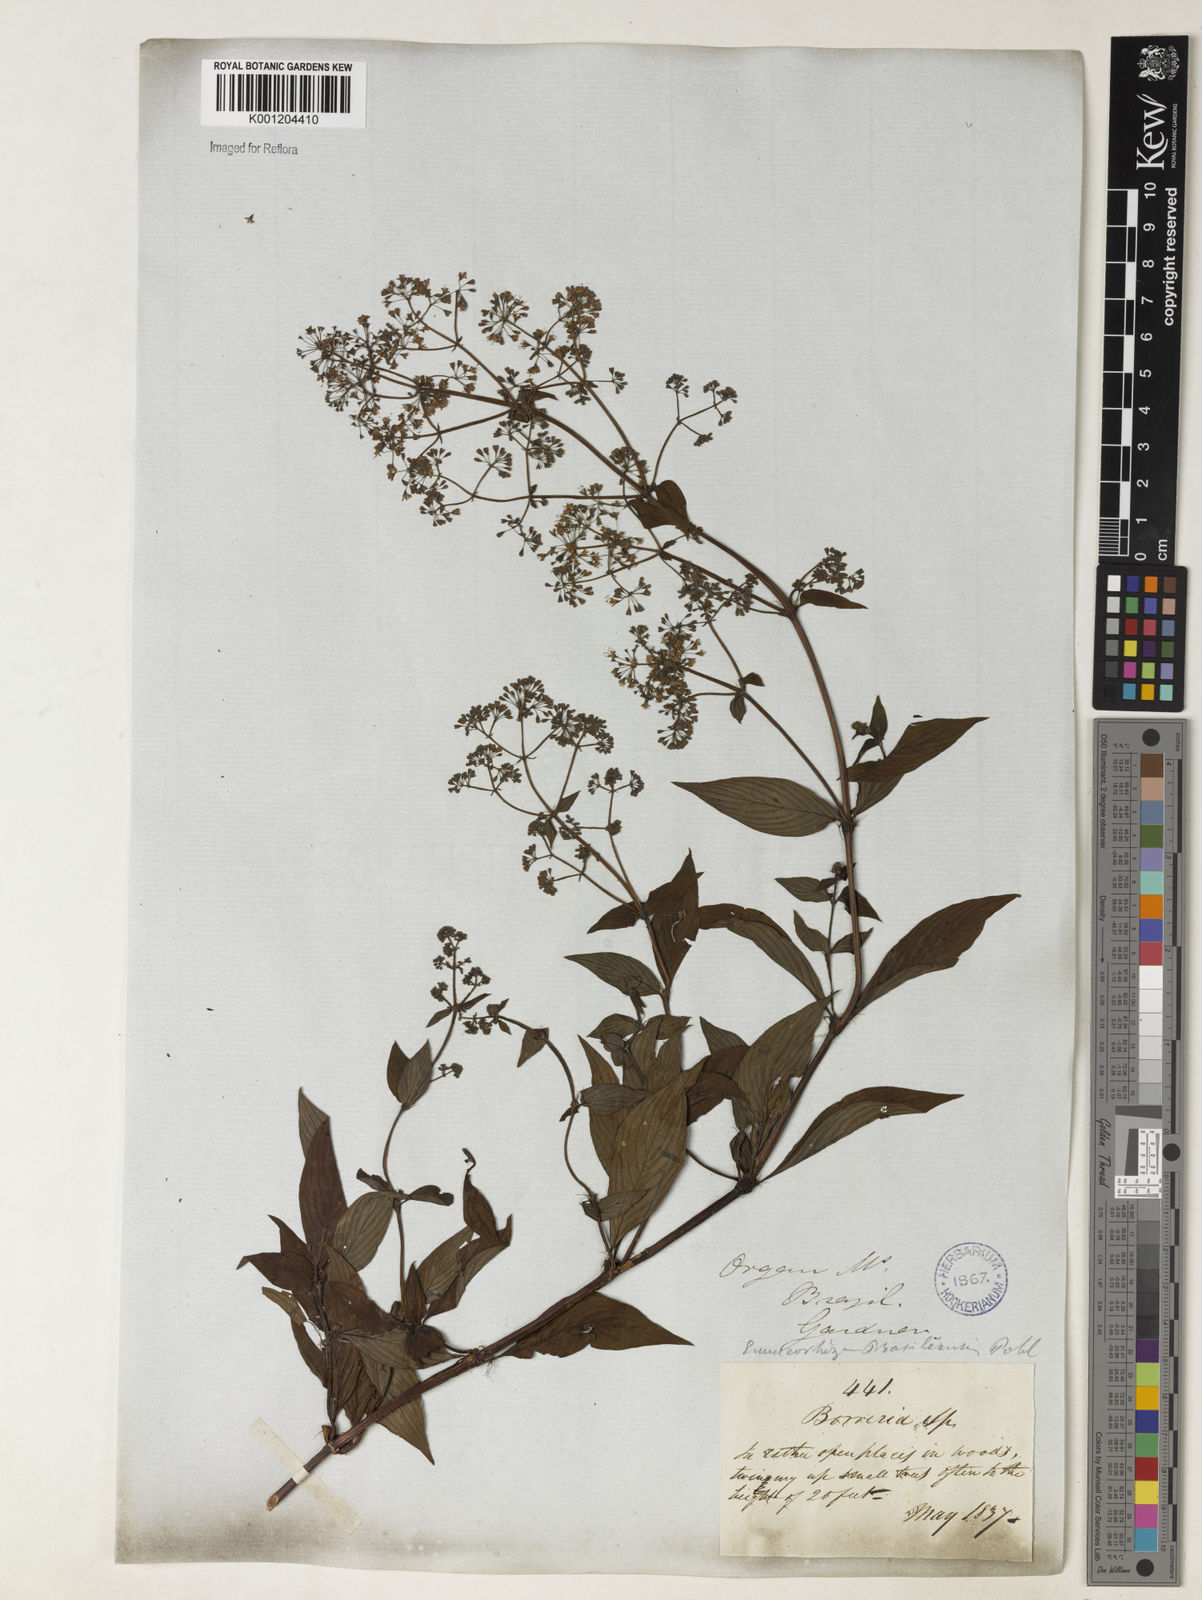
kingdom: Plantae
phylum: Tracheophyta
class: Magnoliopsida
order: Gentianales
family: Rubiaceae
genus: Emmeorhiza
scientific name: Emmeorhiza
